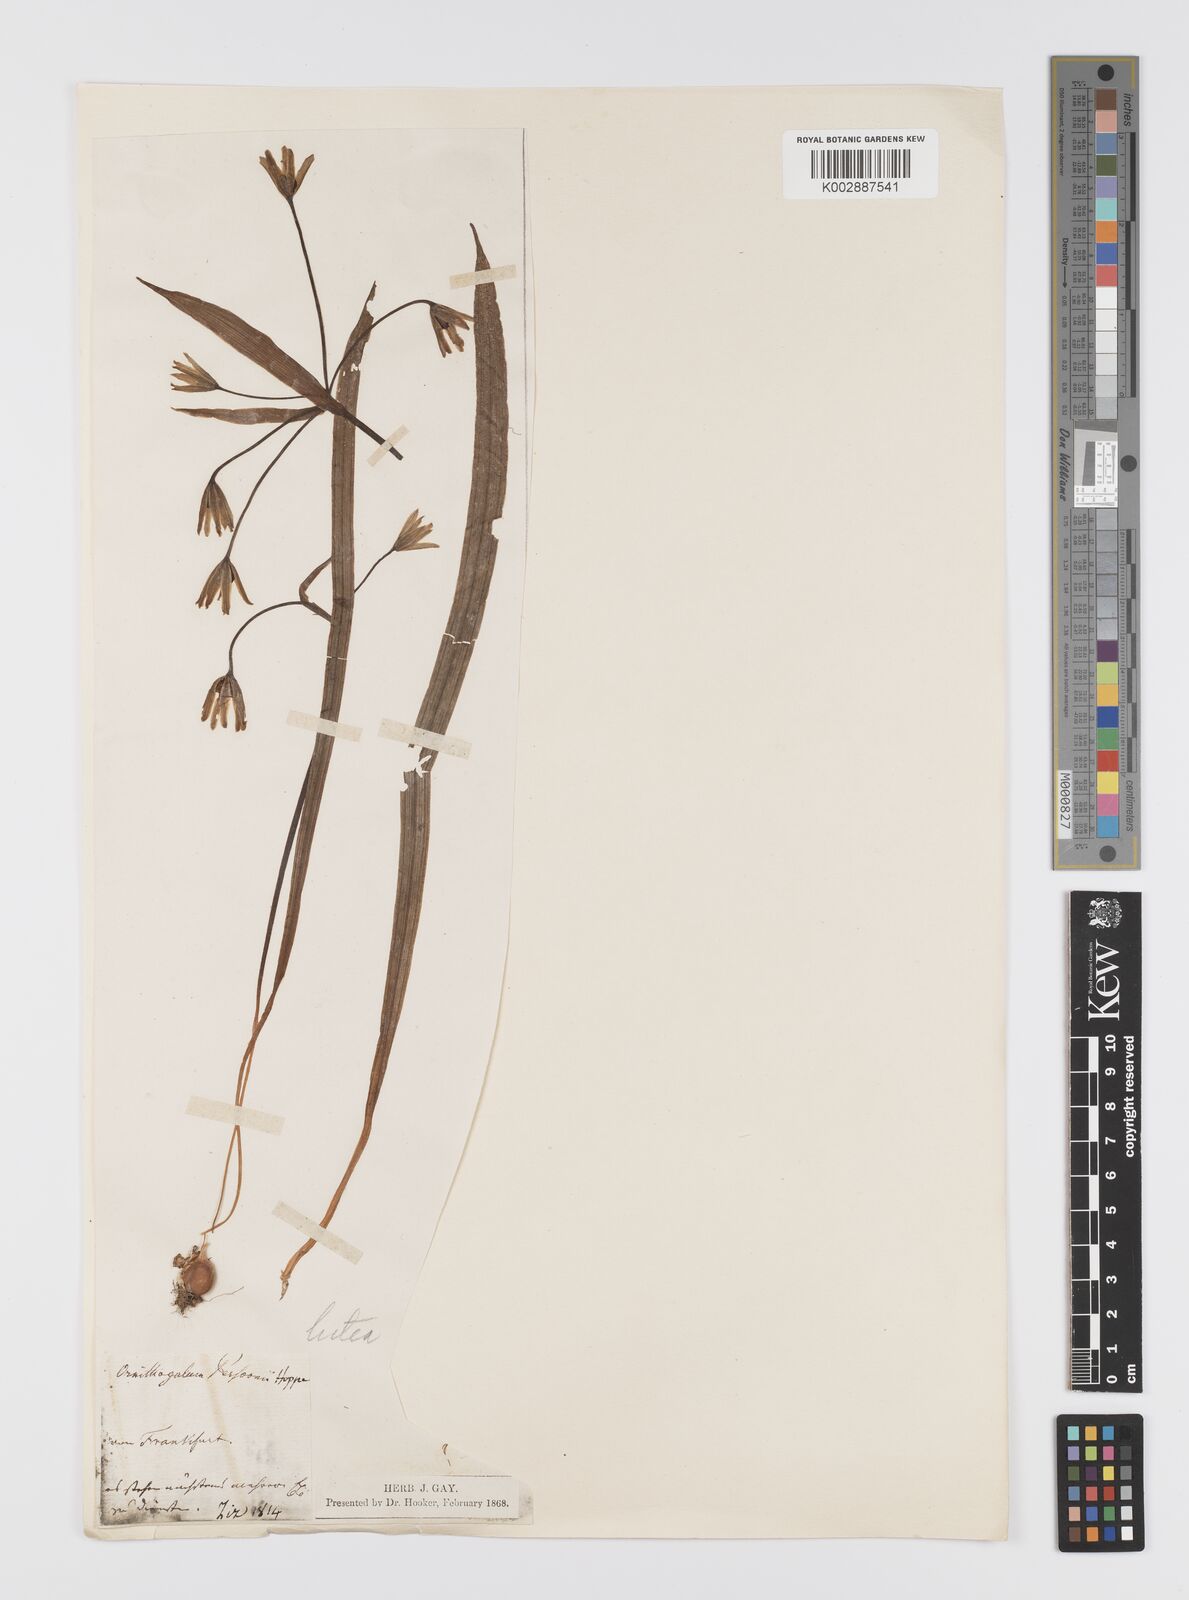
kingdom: Plantae
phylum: Tracheophyta
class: Liliopsida
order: Liliales
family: Liliaceae
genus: Gagea
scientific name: Gagea lutea
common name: Yellow star-of-bethlehem
